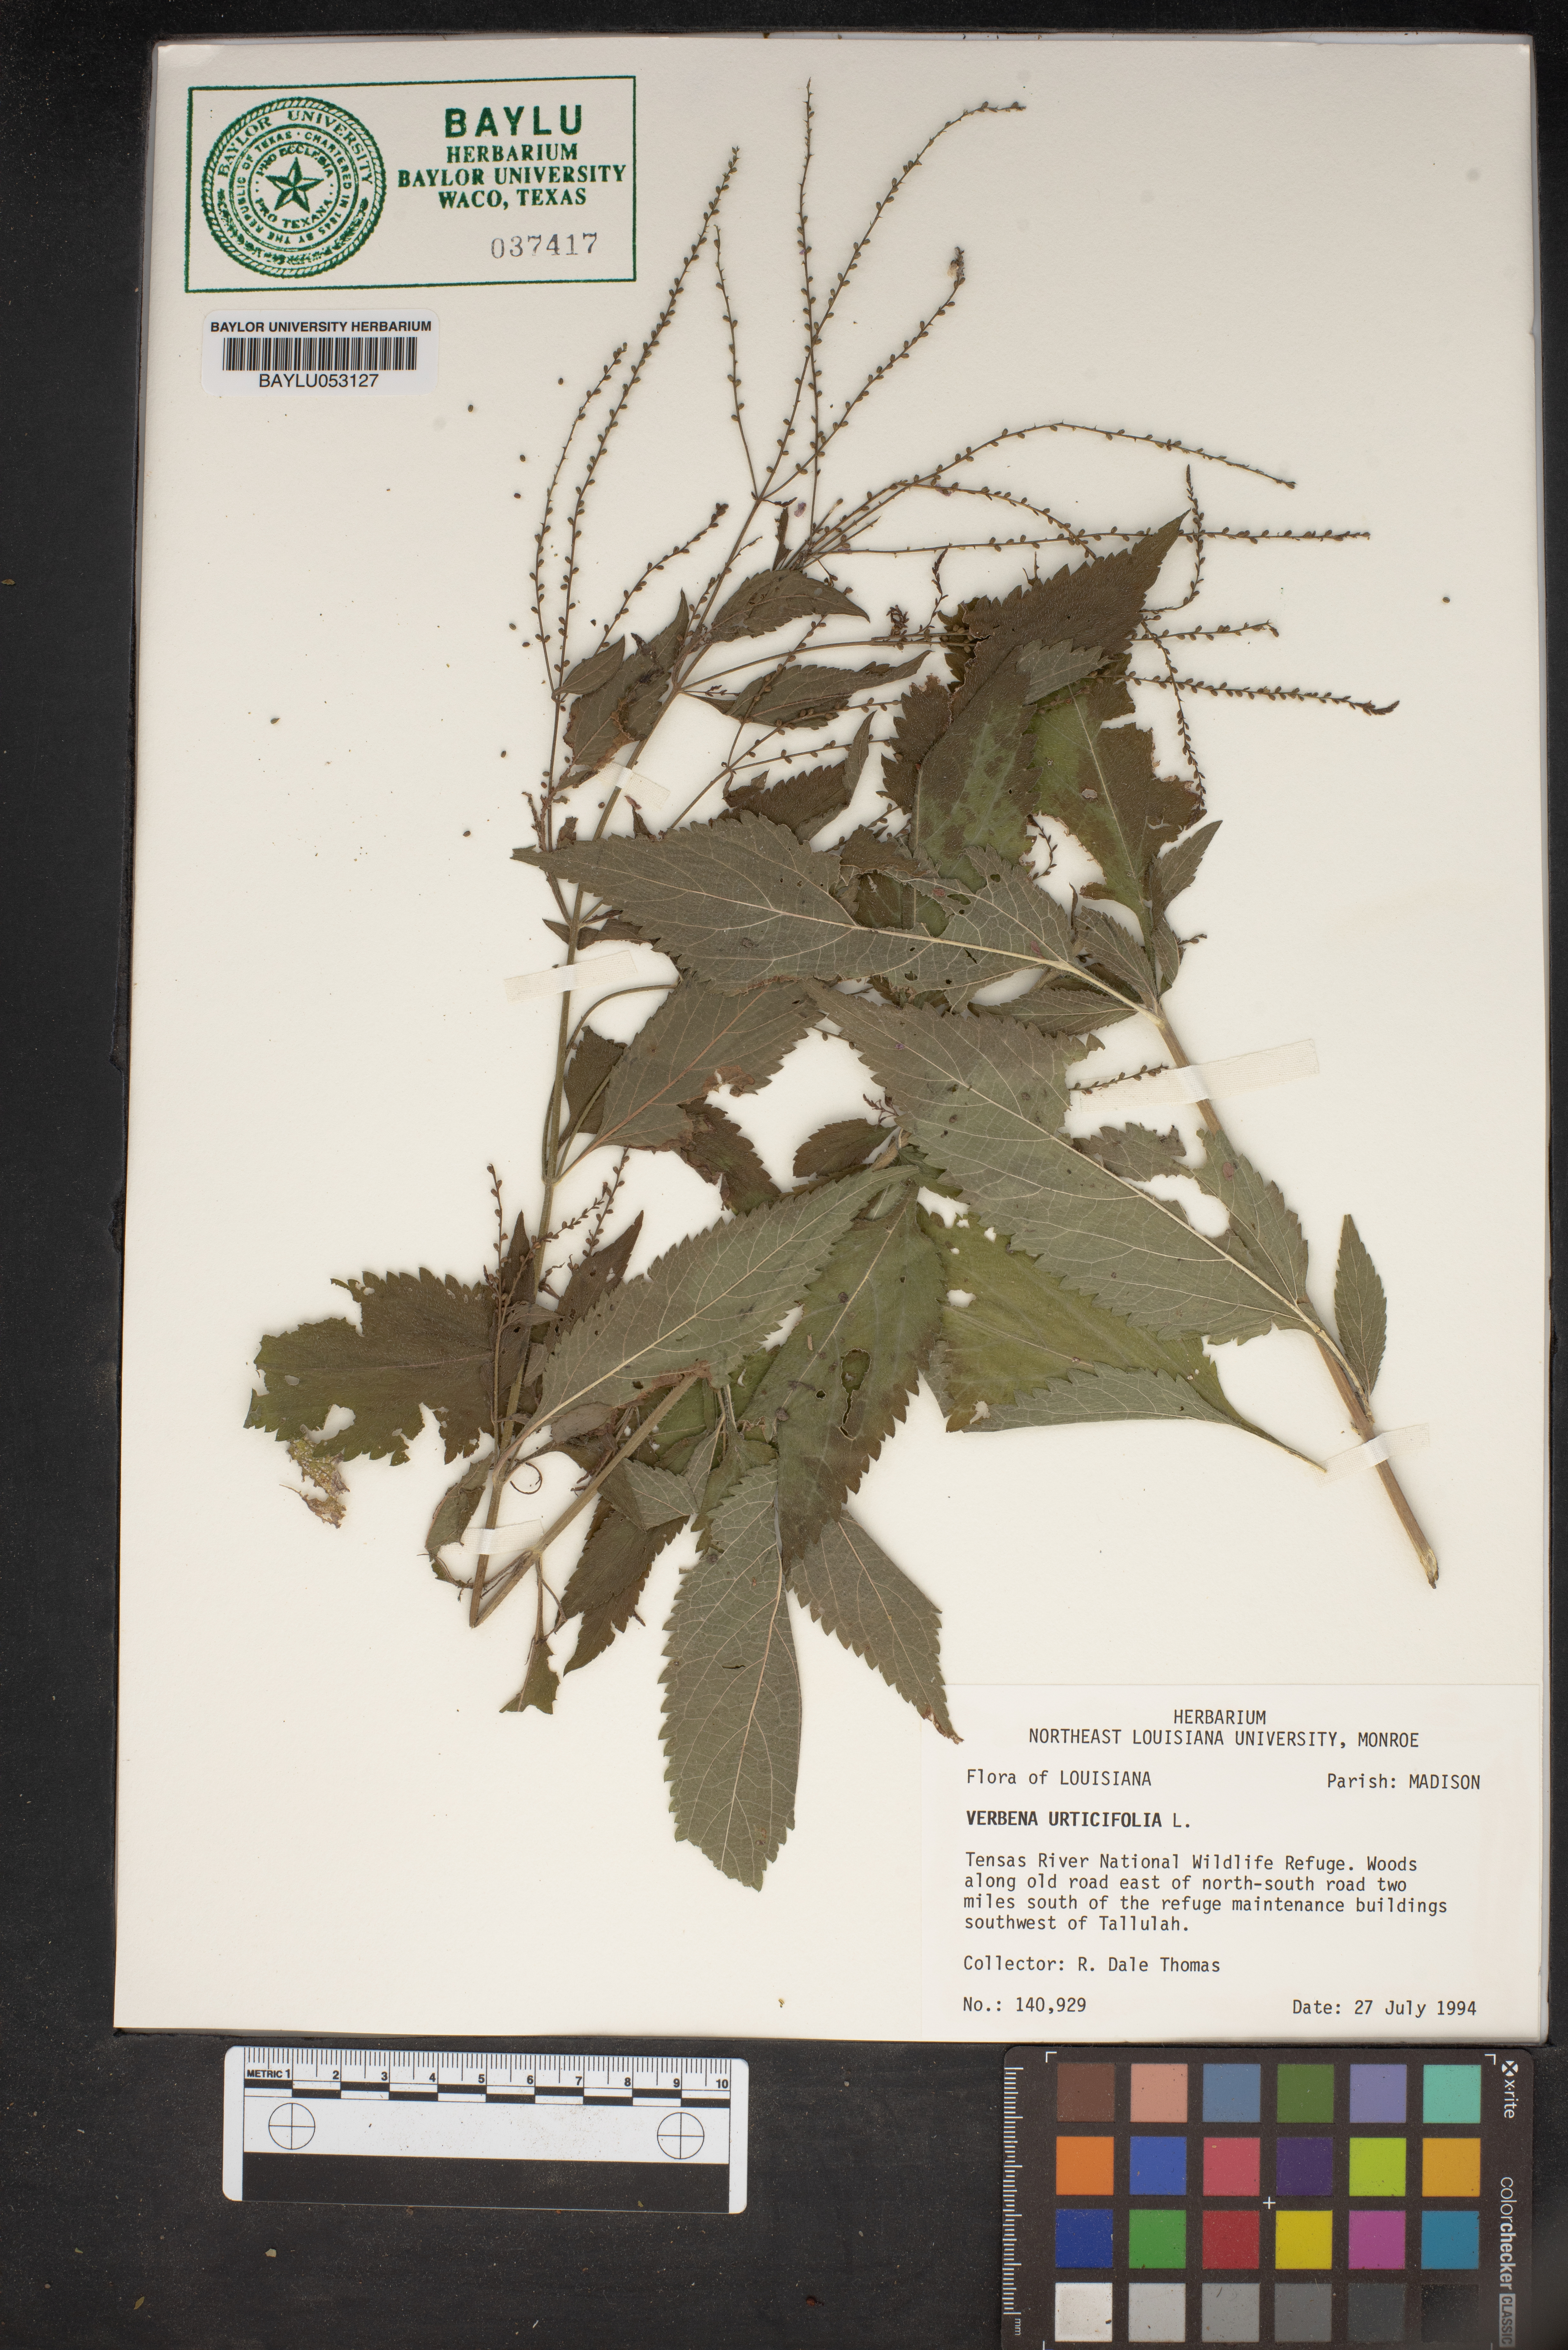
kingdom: Plantae
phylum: Tracheophyta
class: Magnoliopsida
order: Lamiales
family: Verbenaceae
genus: Verbena
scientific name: Verbena urticifolia
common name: Nettle-leaved vervain
